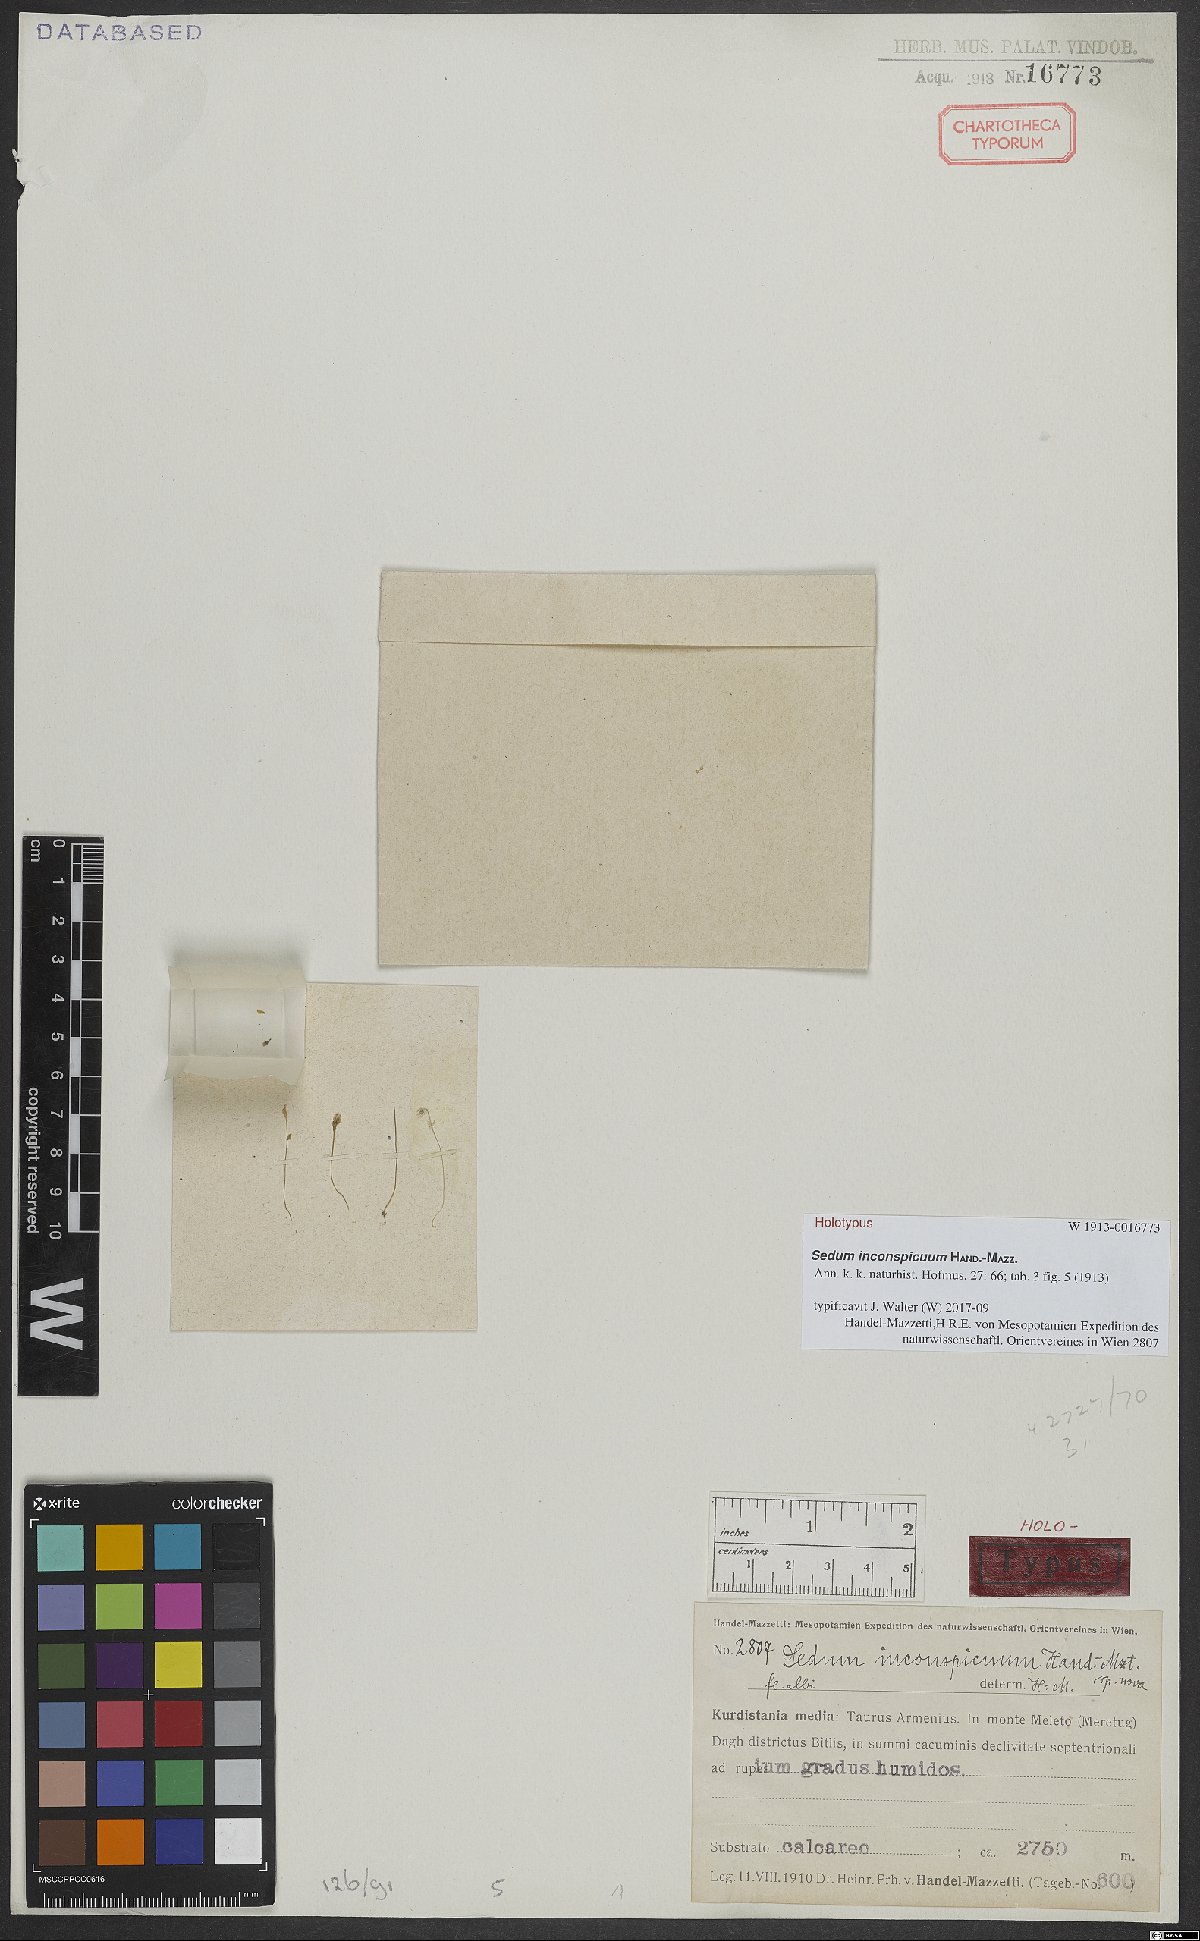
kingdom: Plantae
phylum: Tracheophyta
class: Magnoliopsida
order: Saxifragales
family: Crassulaceae
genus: Sedum
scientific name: Sedum inconspicuum
